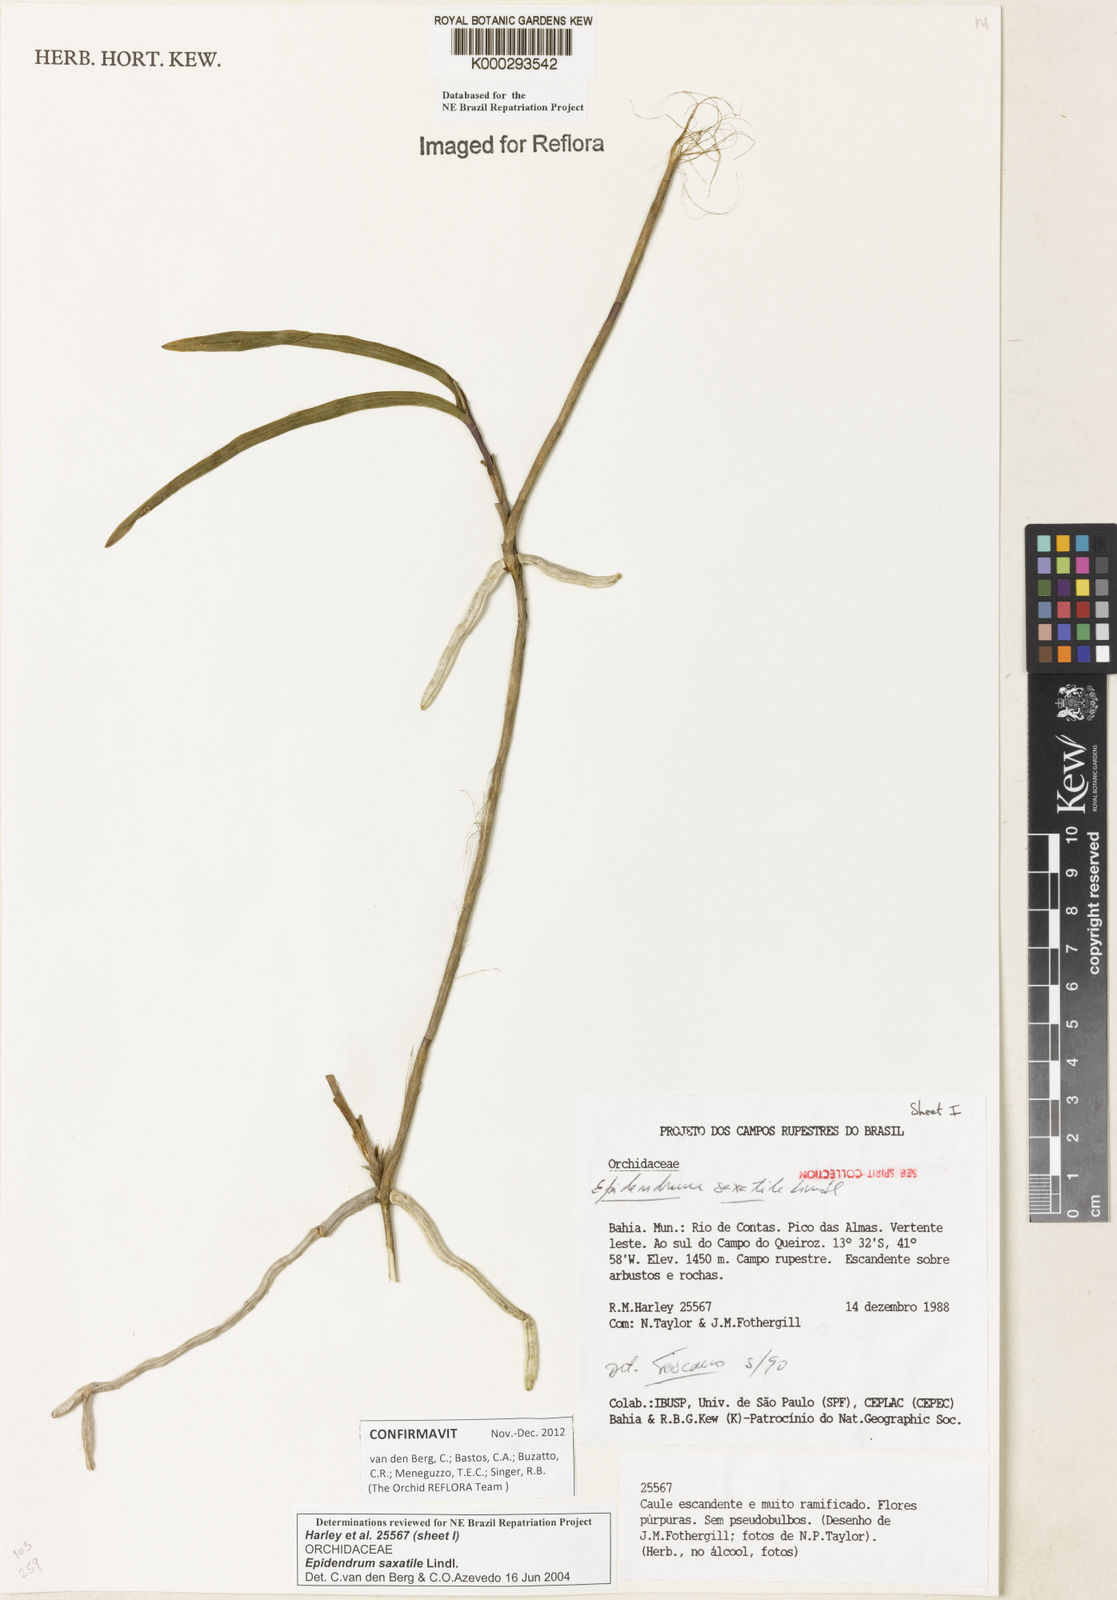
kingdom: Plantae
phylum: Tracheophyta
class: Liliopsida
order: Asparagales
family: Orchidaceae
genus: Epidendrum
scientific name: Epidendrum saxatile
